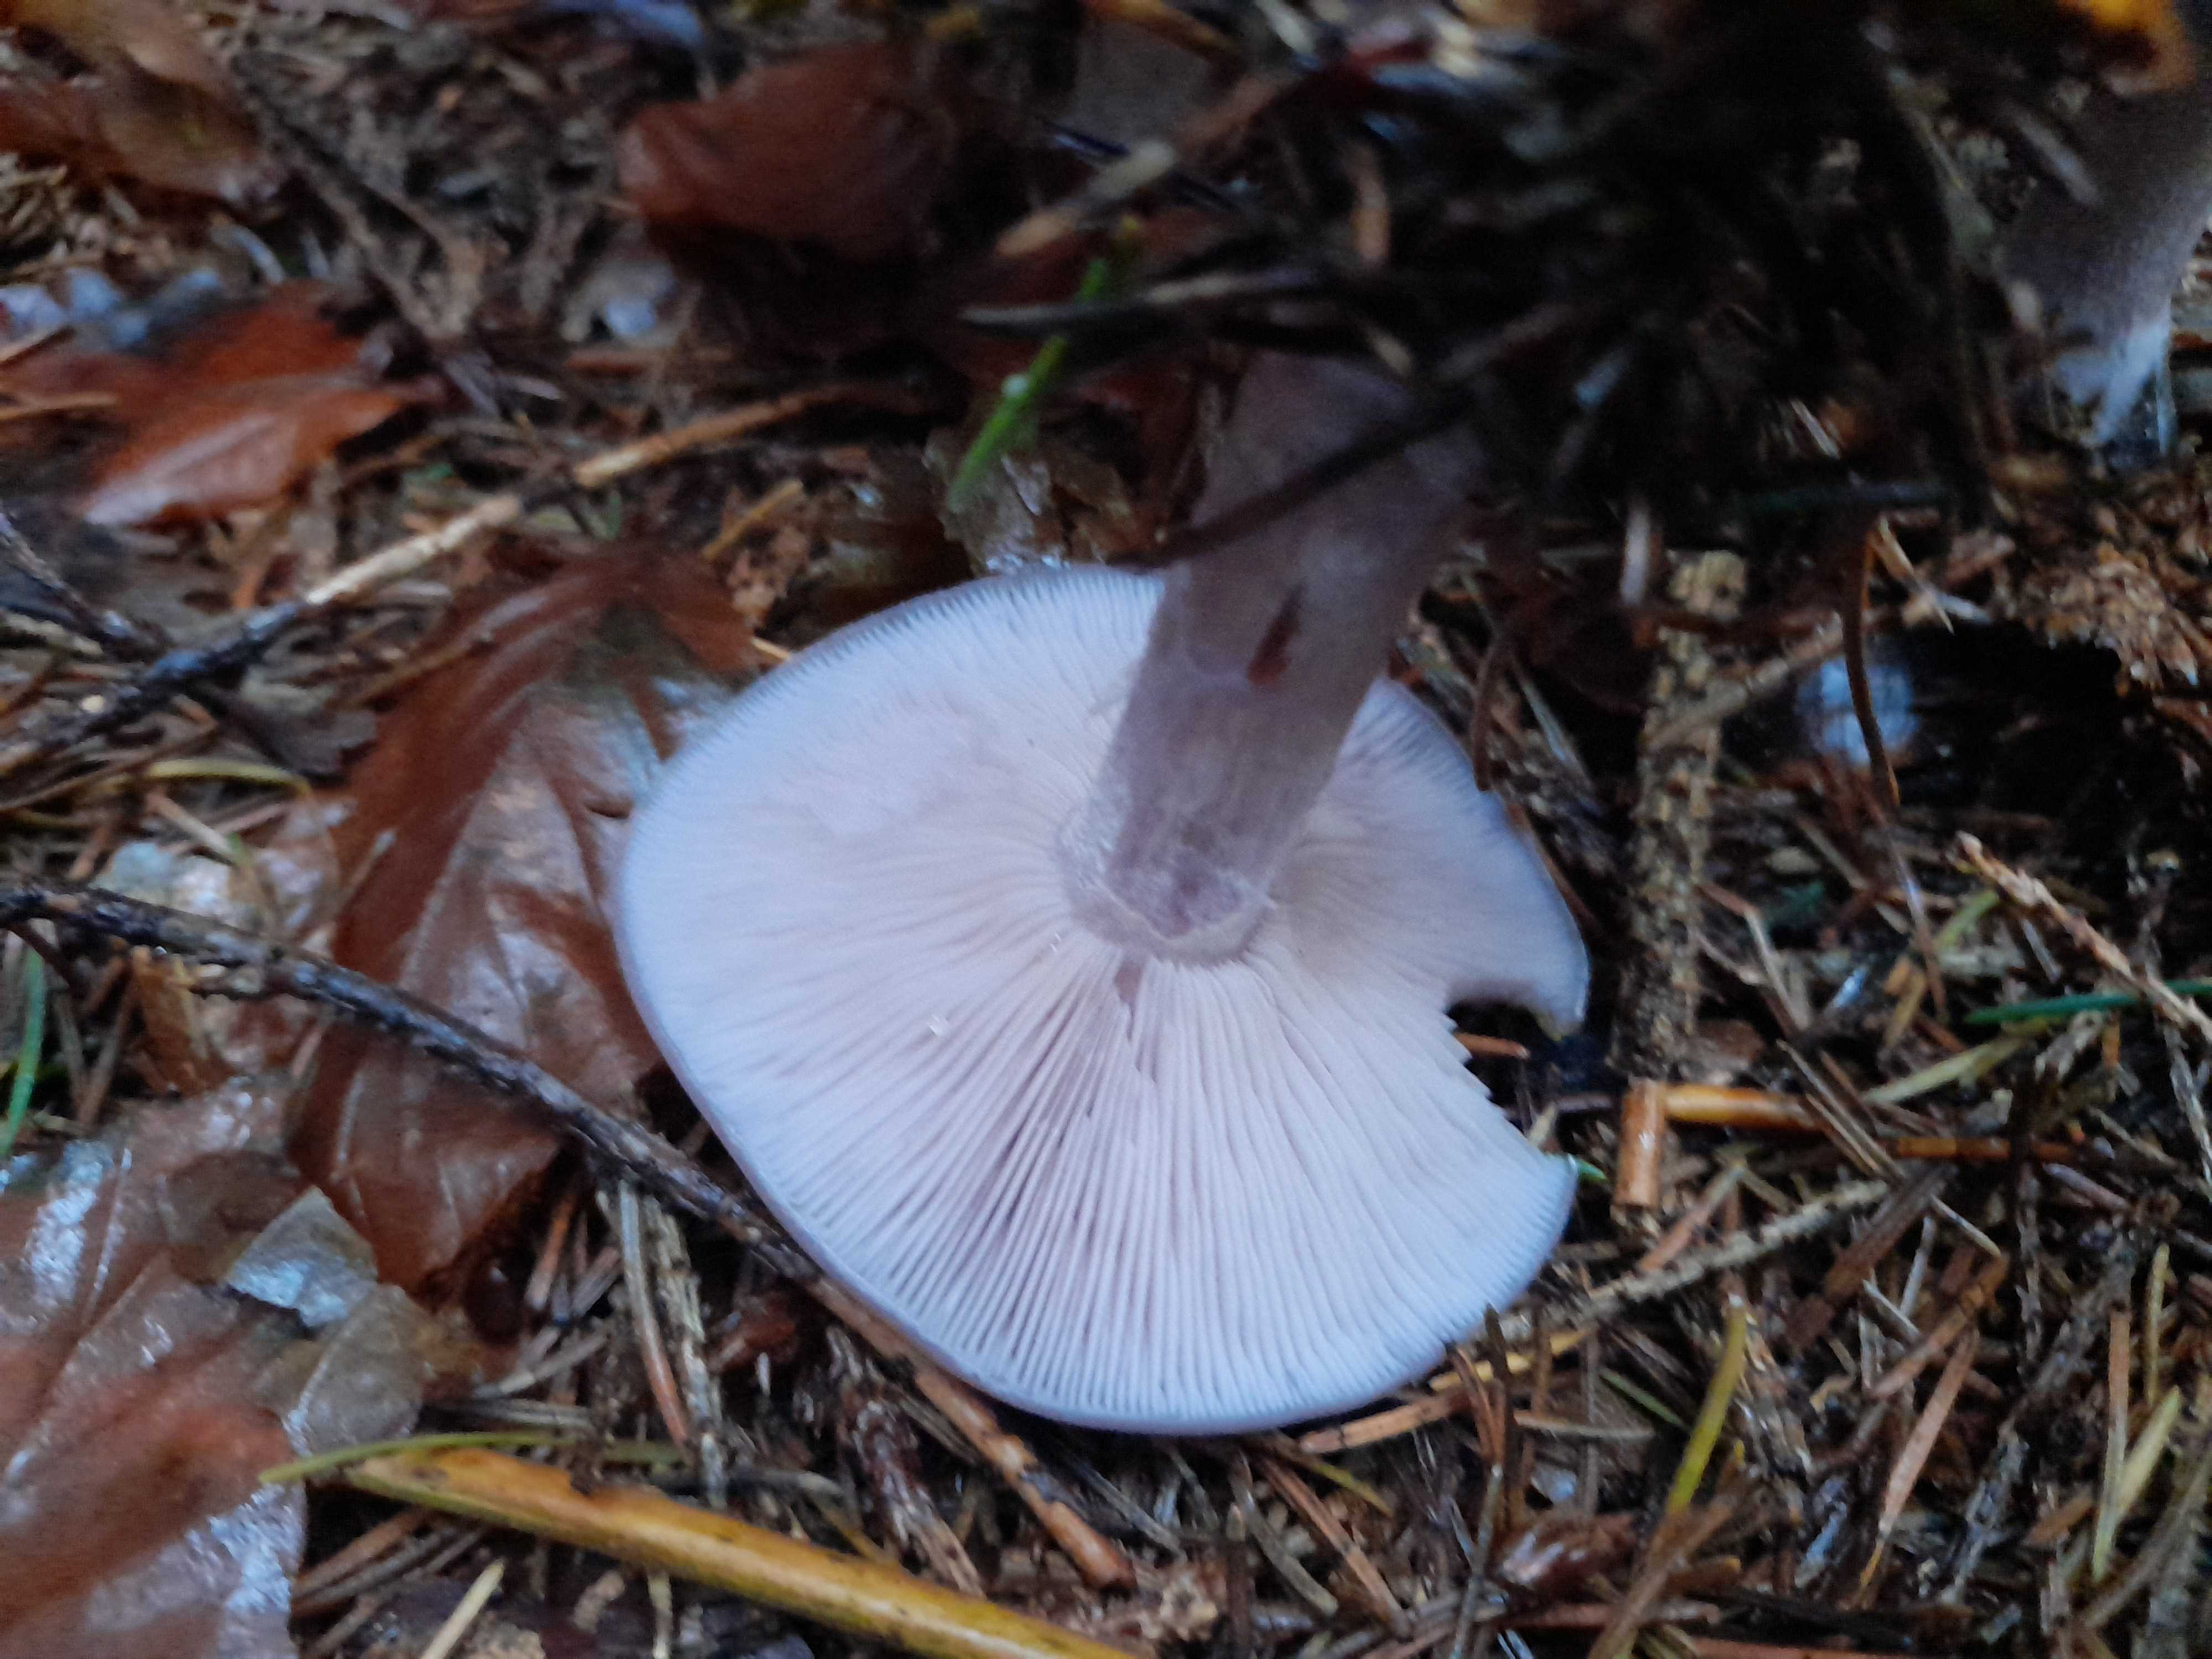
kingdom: Fungi
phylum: Basidiomycota
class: Agaricomycetes
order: Agaricales
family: Tricholomataceae
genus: Lepista
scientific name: Lepista nuda
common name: violet hekseringshat
